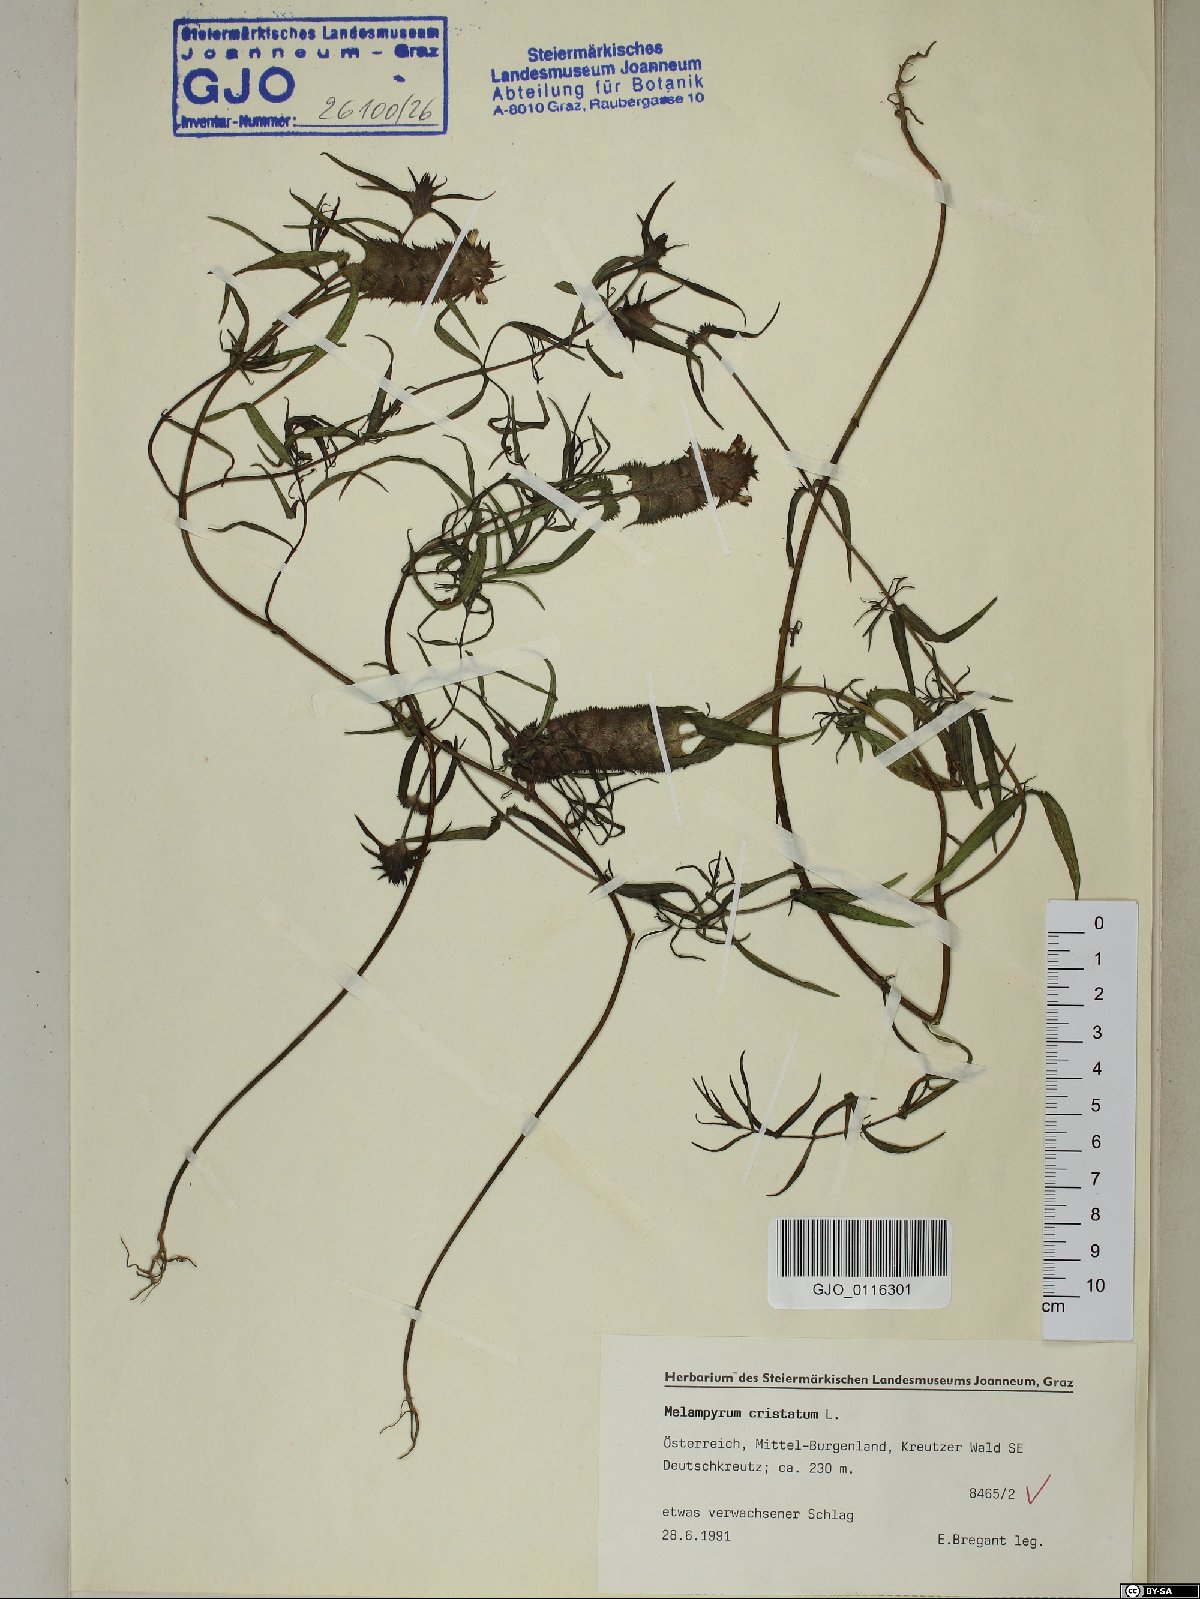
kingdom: Plantae
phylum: Tracheophyta
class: Magnoliopsida
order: Lamiales
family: Orobanchaceae
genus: Melampyrum
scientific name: Melampyrum cristatum
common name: Crested cow-wheat
